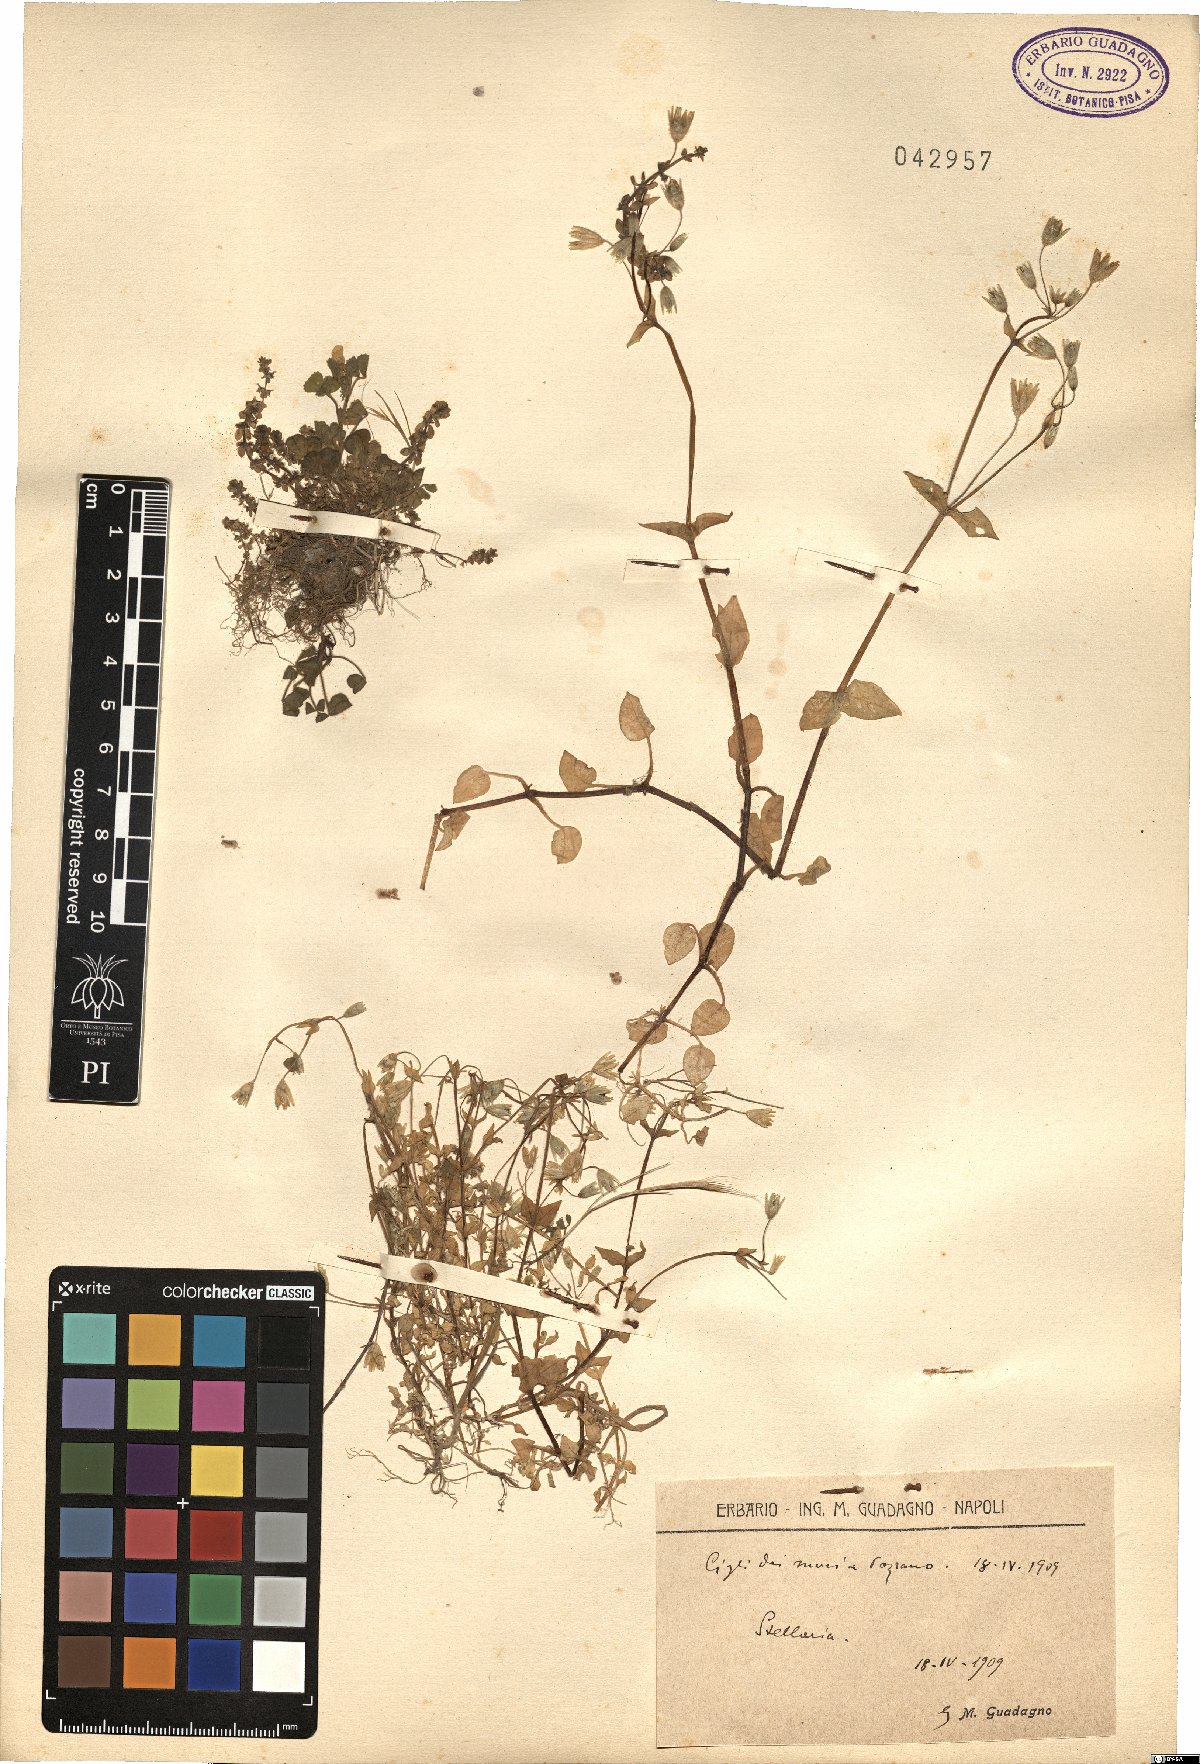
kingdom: Plantae
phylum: Tracheophyta
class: Magnoliopsida
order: Caryophyllales
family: Caryophyllaceae
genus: Stellaria
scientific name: Stellaria
